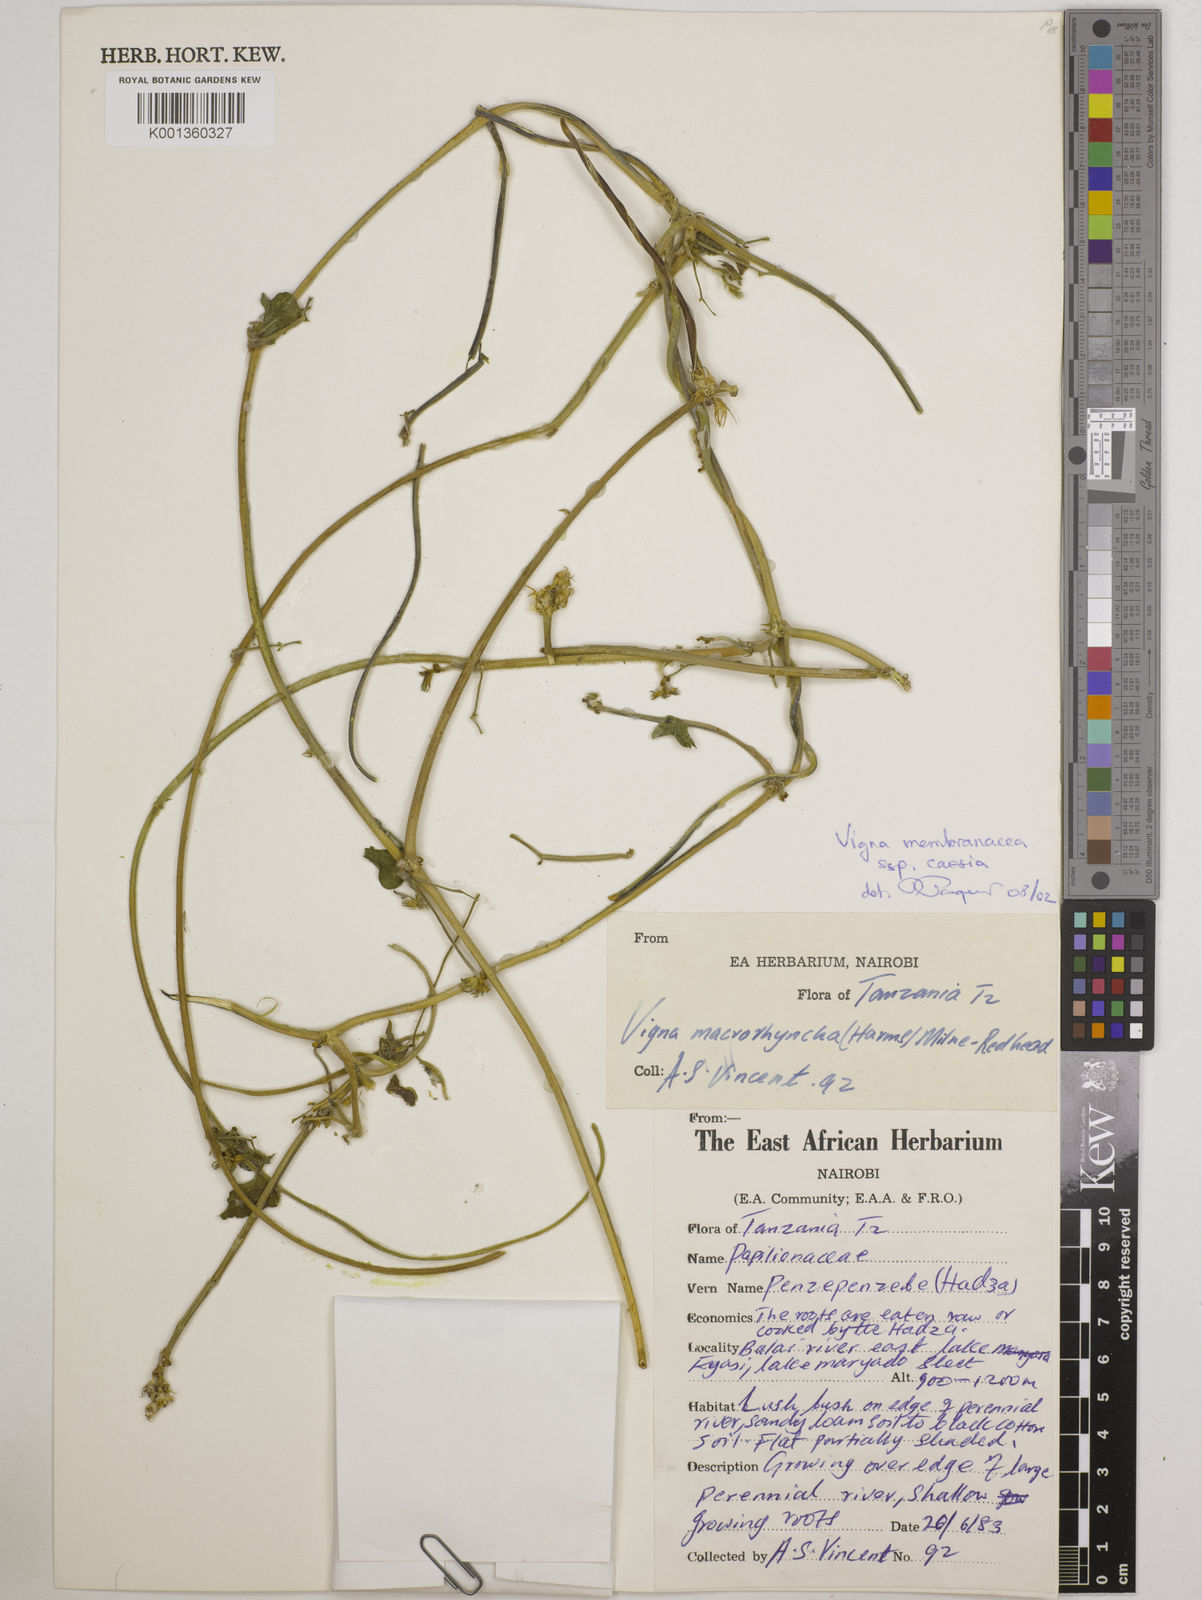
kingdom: Plantae
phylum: Tracheophyta
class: Magnoliopsida
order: Fabales
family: Fabaceae
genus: Vigna
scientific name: Vigna
